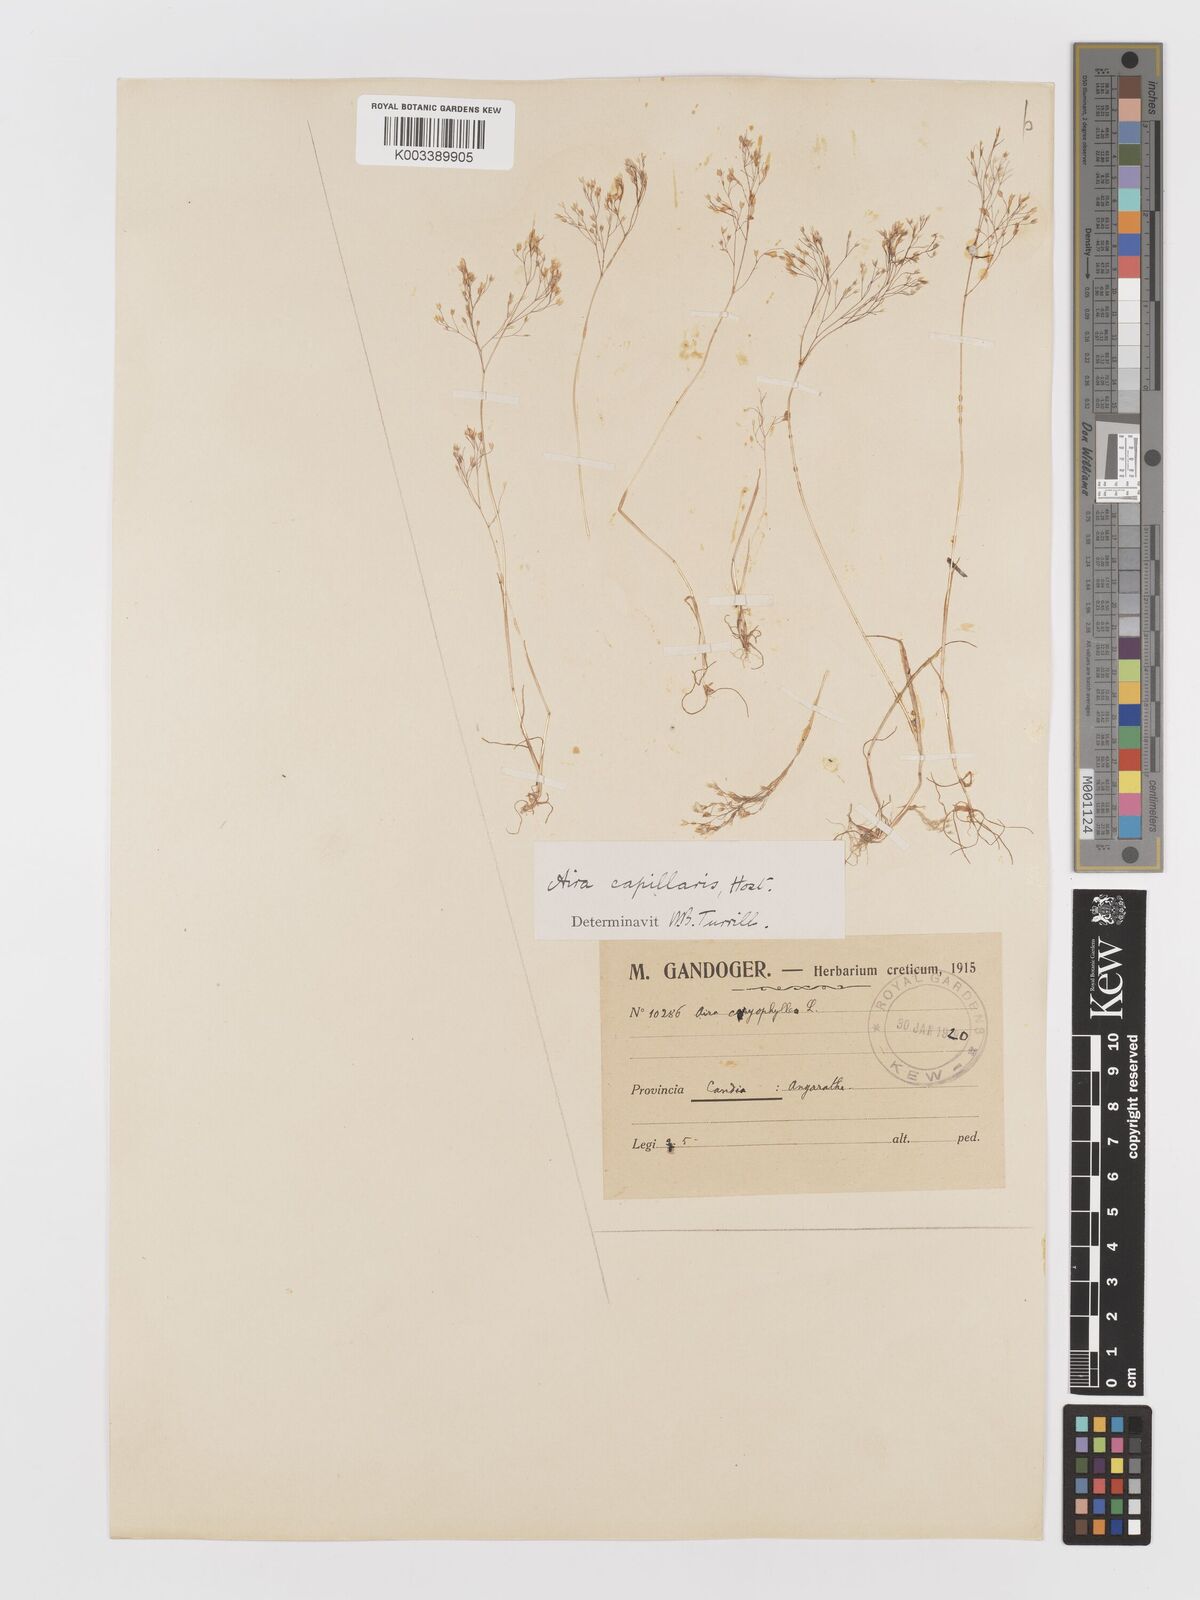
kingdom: Plantae
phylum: Tracheophyta
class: Liliopsida
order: Poales
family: Poaceae
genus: Aira
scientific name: Aira elegans
